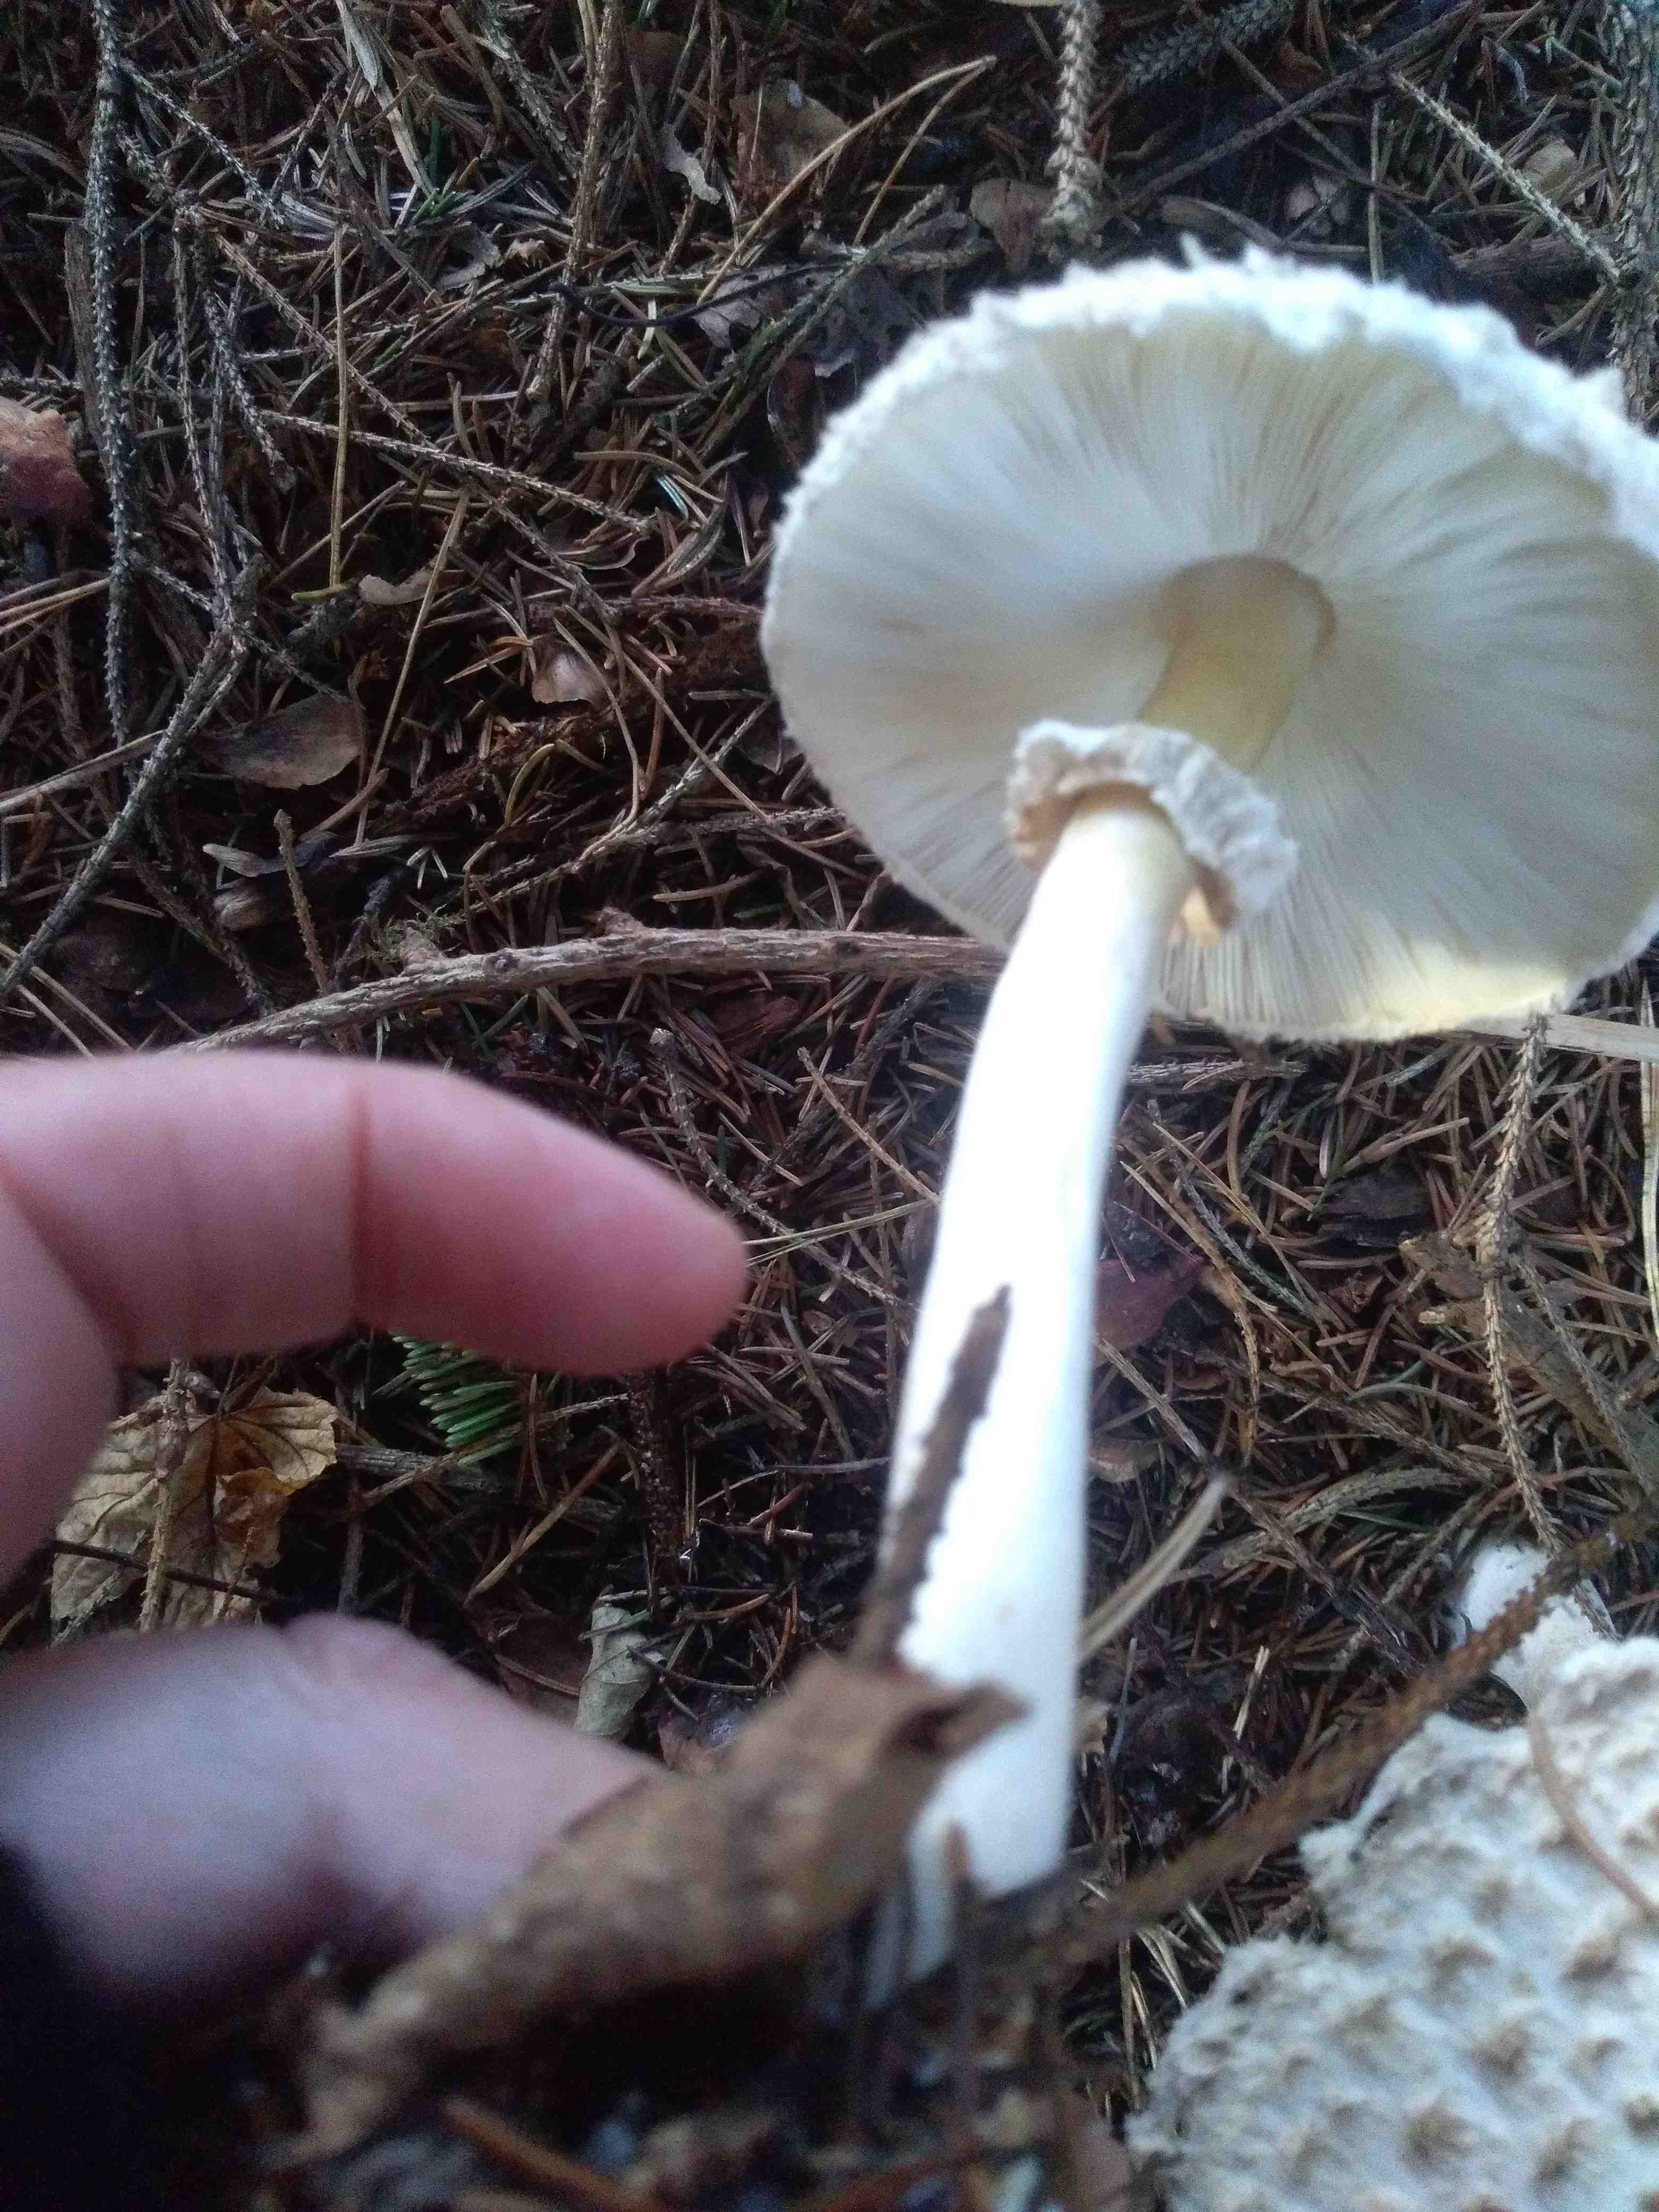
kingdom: Fungi
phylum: Basidiomycota
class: Agaricomycetes
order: Agaricales
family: Agaricaceae
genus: Leucoagaricus
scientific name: Leucoagaricus nympharum
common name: gran-silkehat
